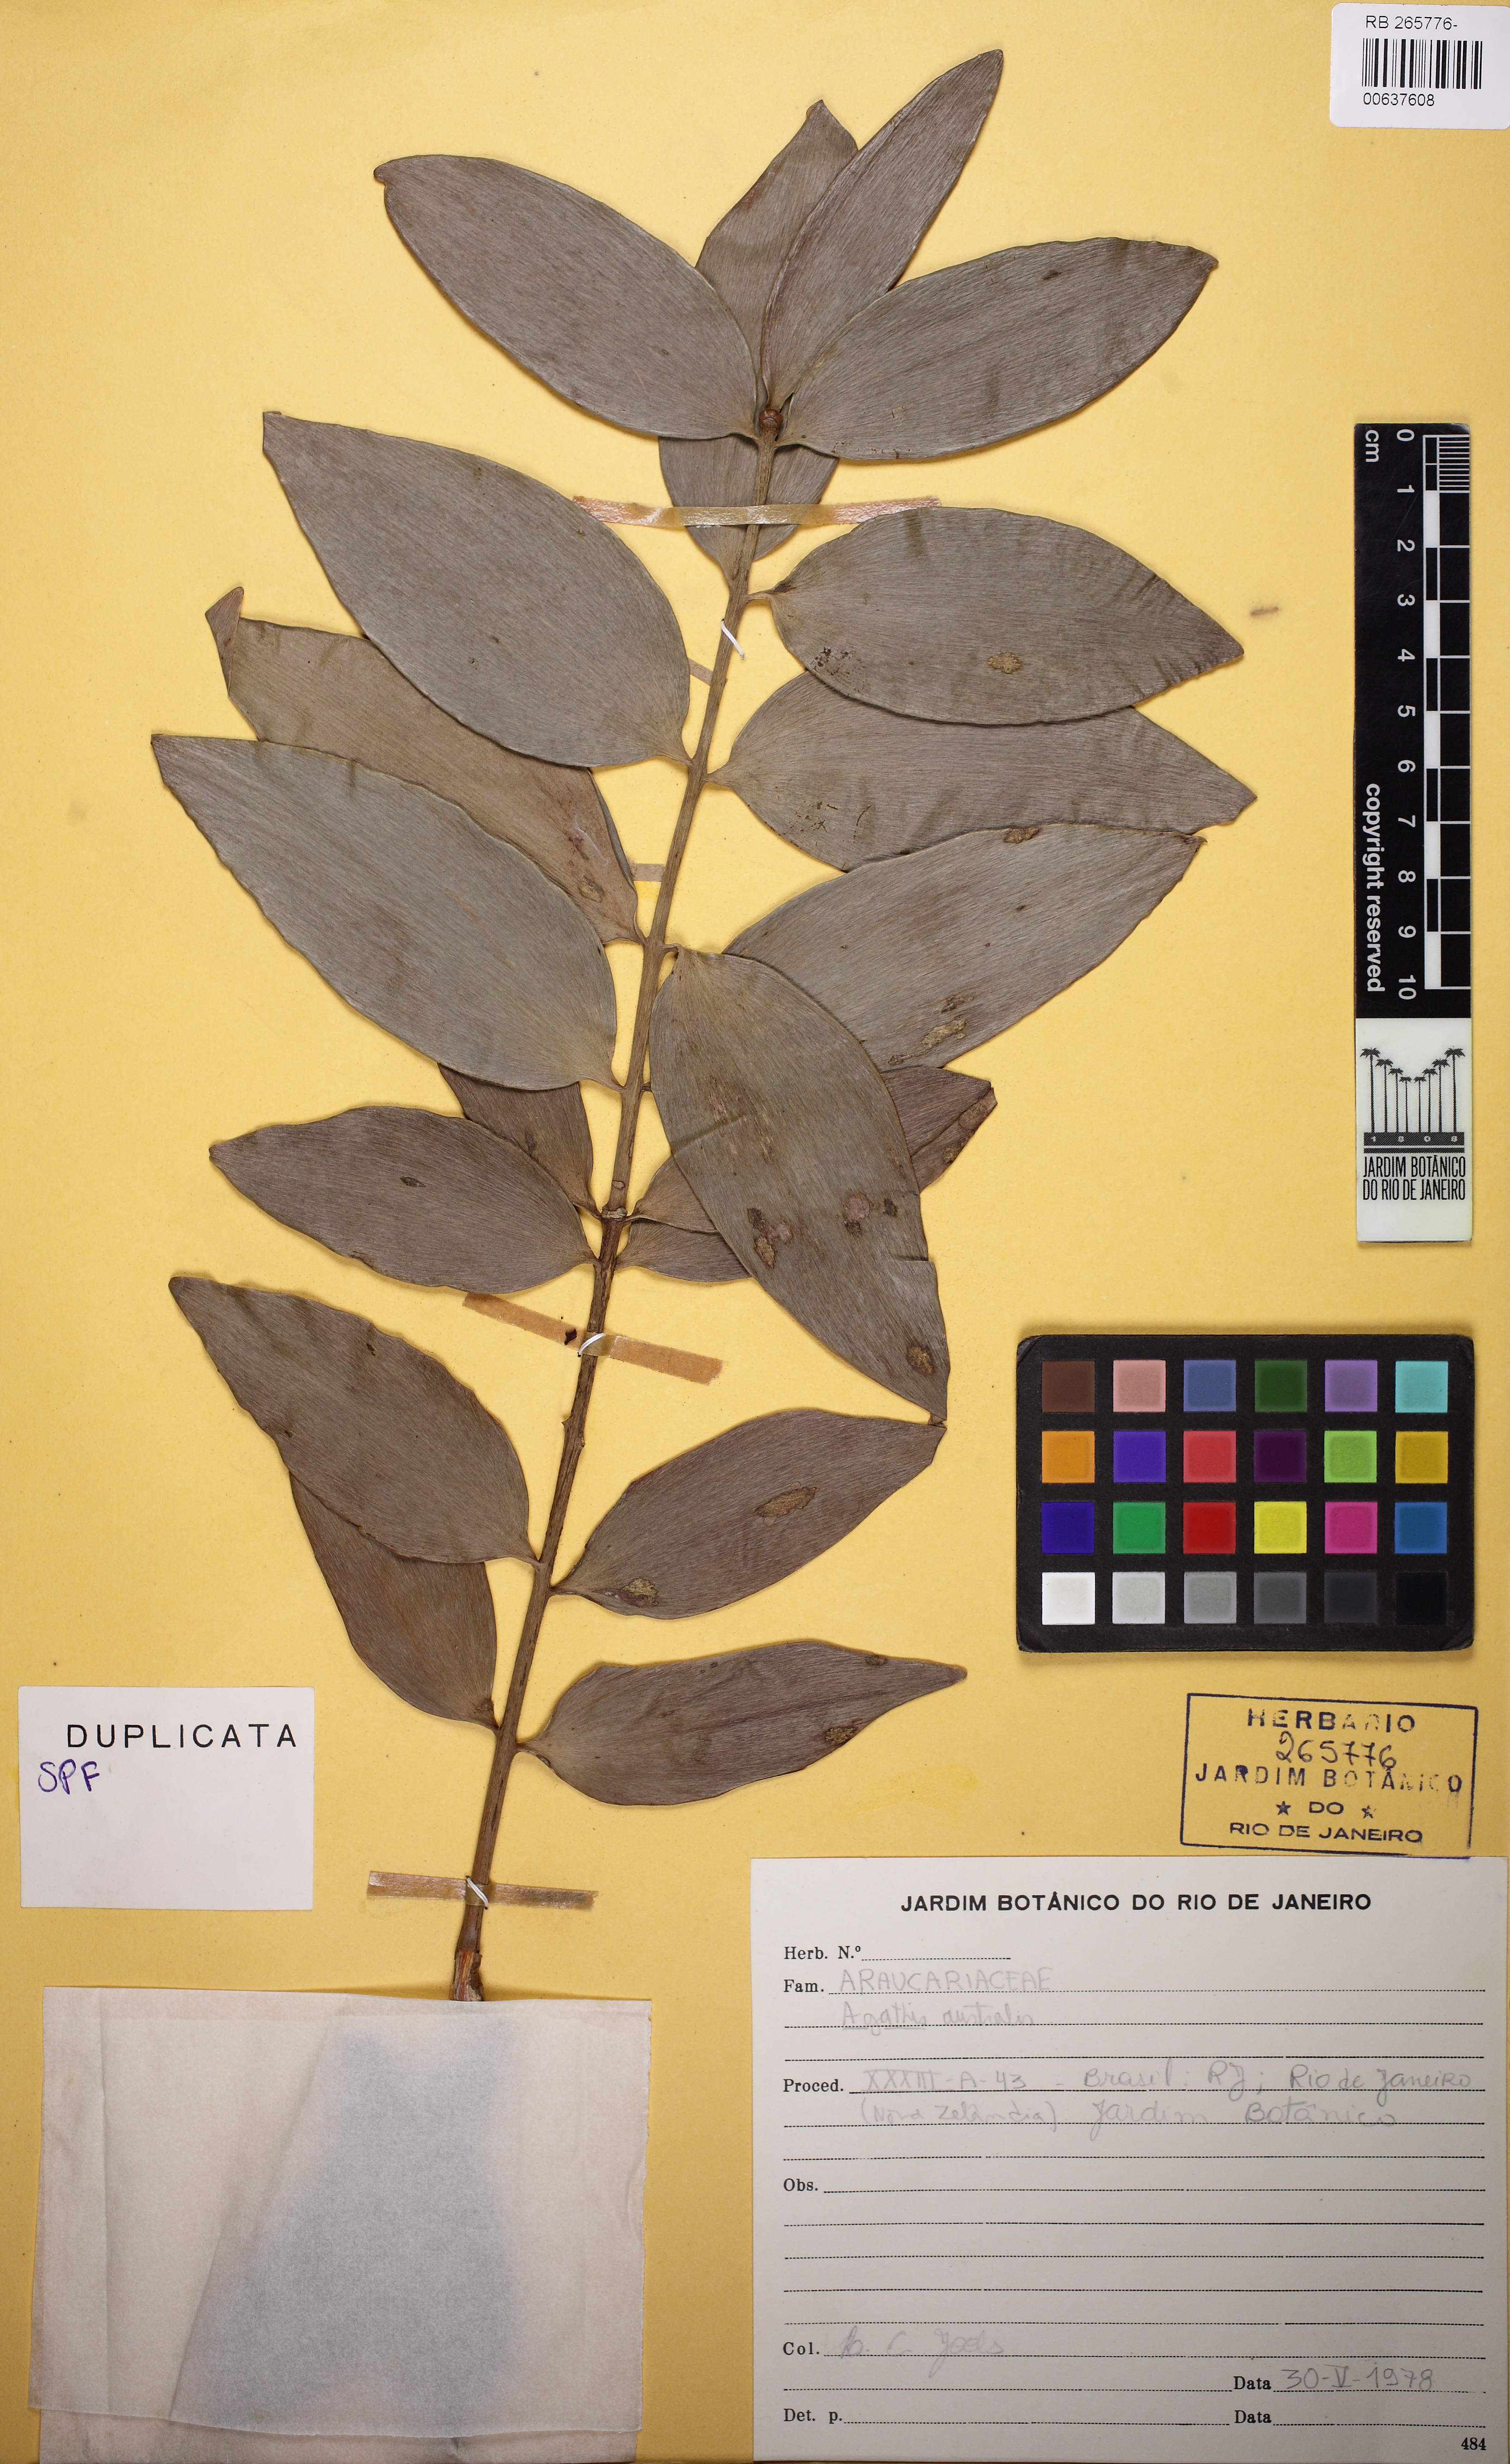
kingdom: Plantae
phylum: Tracheophyta
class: Pinopsida
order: Pinales
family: Araucariaceae
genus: Agathis
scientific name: Agathis australis
